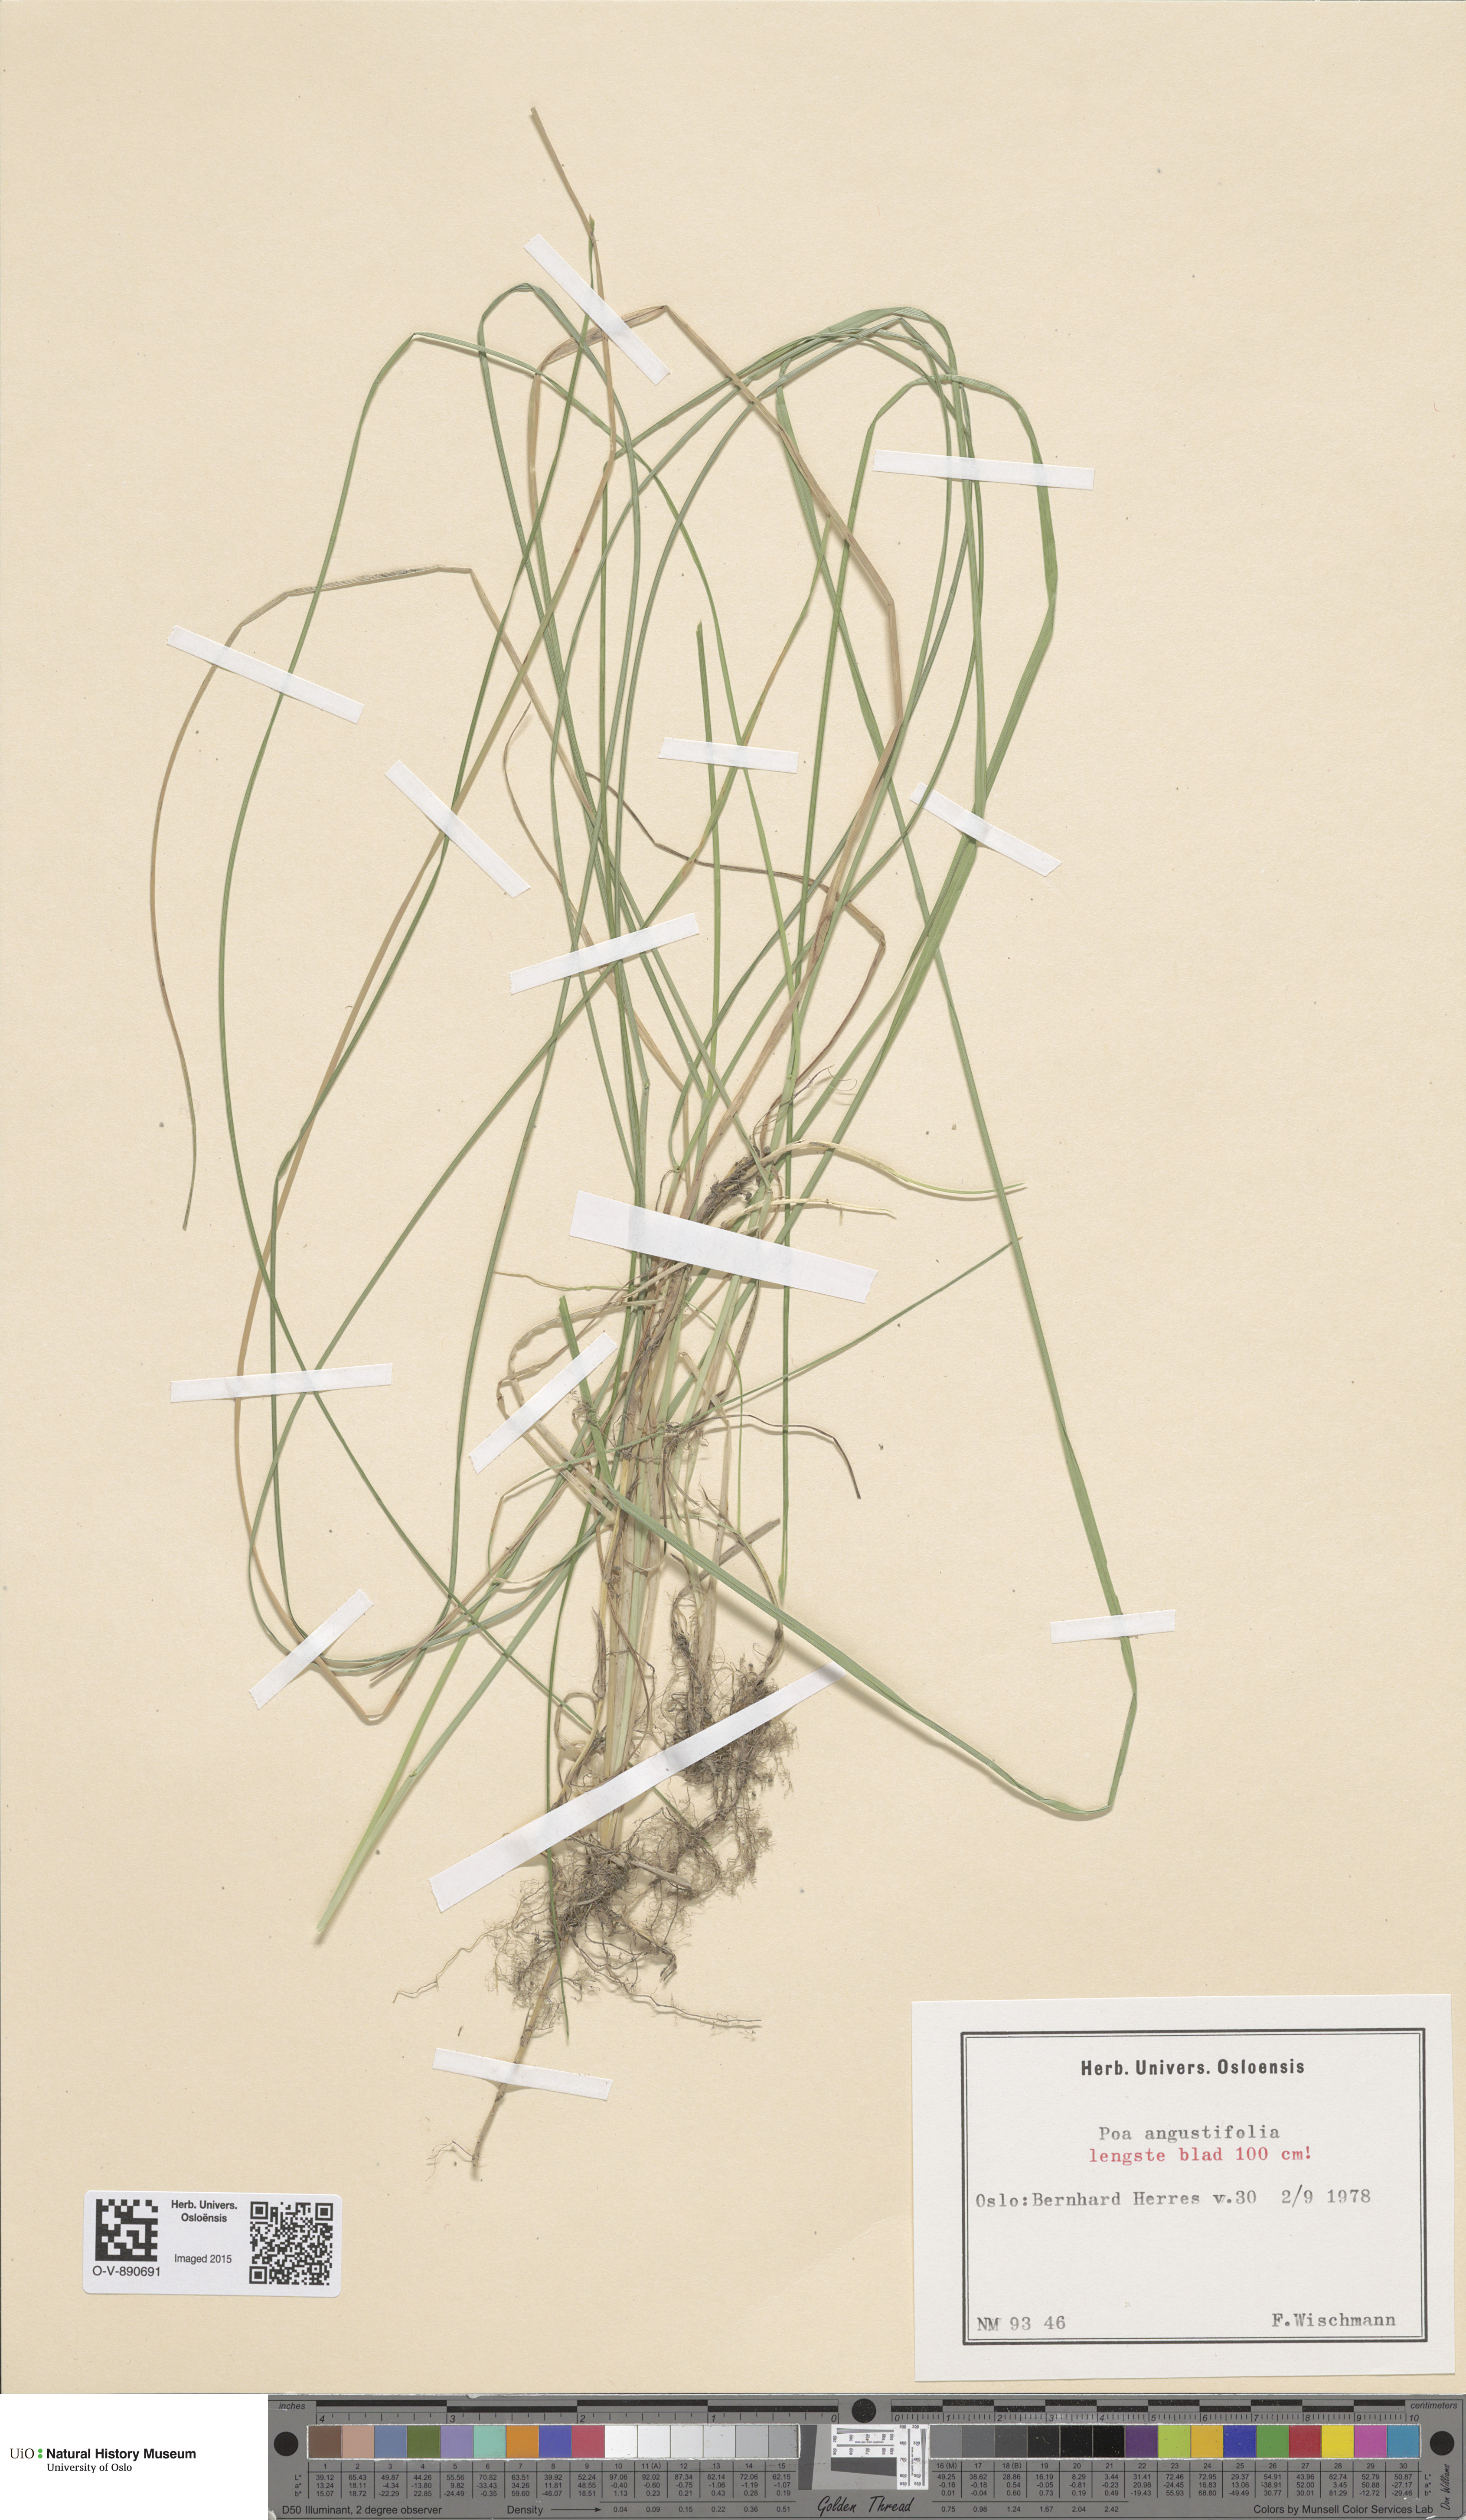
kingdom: Plantae
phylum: Tracheophyta
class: Liliopsida
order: Poales
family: Poaceae
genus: Poa
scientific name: Poa angustifolia
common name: Narrow-leaved meadow-grass
